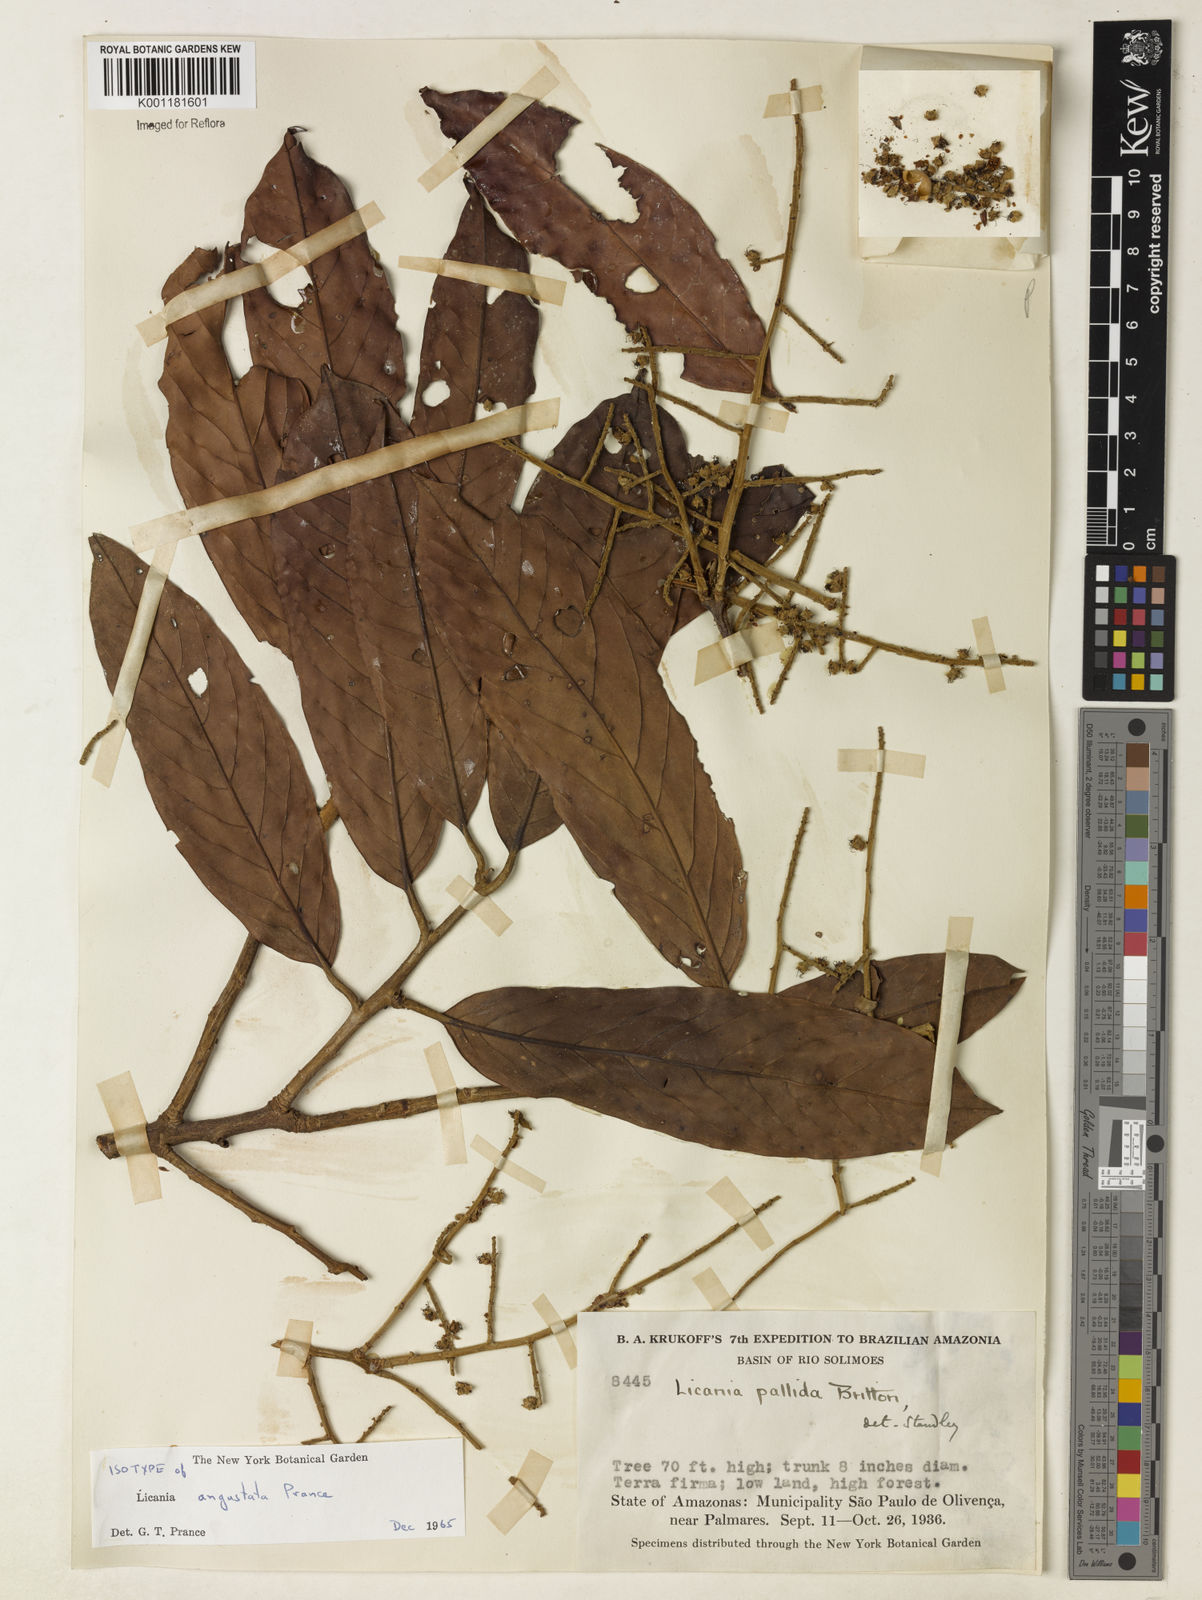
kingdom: Plantae
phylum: Tracheophyta
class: Magnoliopsida
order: Malpighiales
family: Chrysobalanaceae
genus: Moquilea
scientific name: Moquilea angustata
